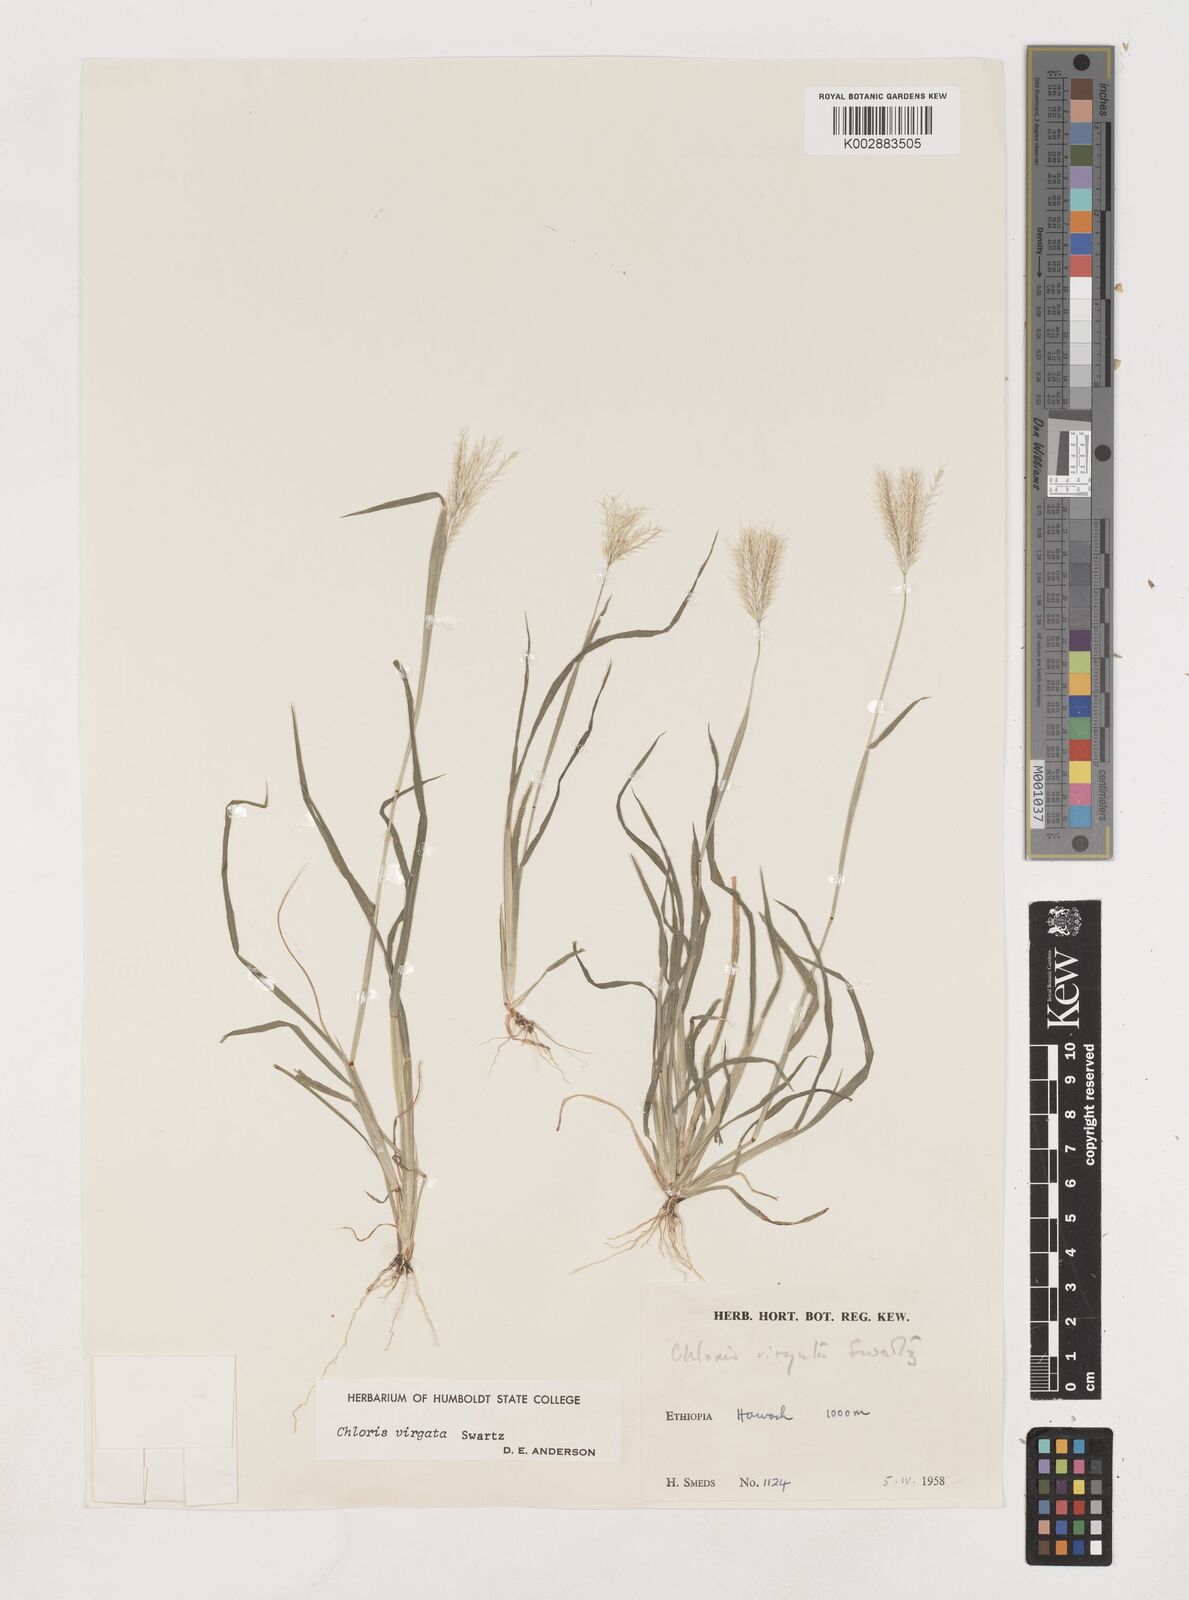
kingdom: Plantae
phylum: Tracheophyta
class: Liliopsida
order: Poales
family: Poaceae
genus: Chloris
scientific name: Chloris virgata
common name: Feathery rhodes-grass
